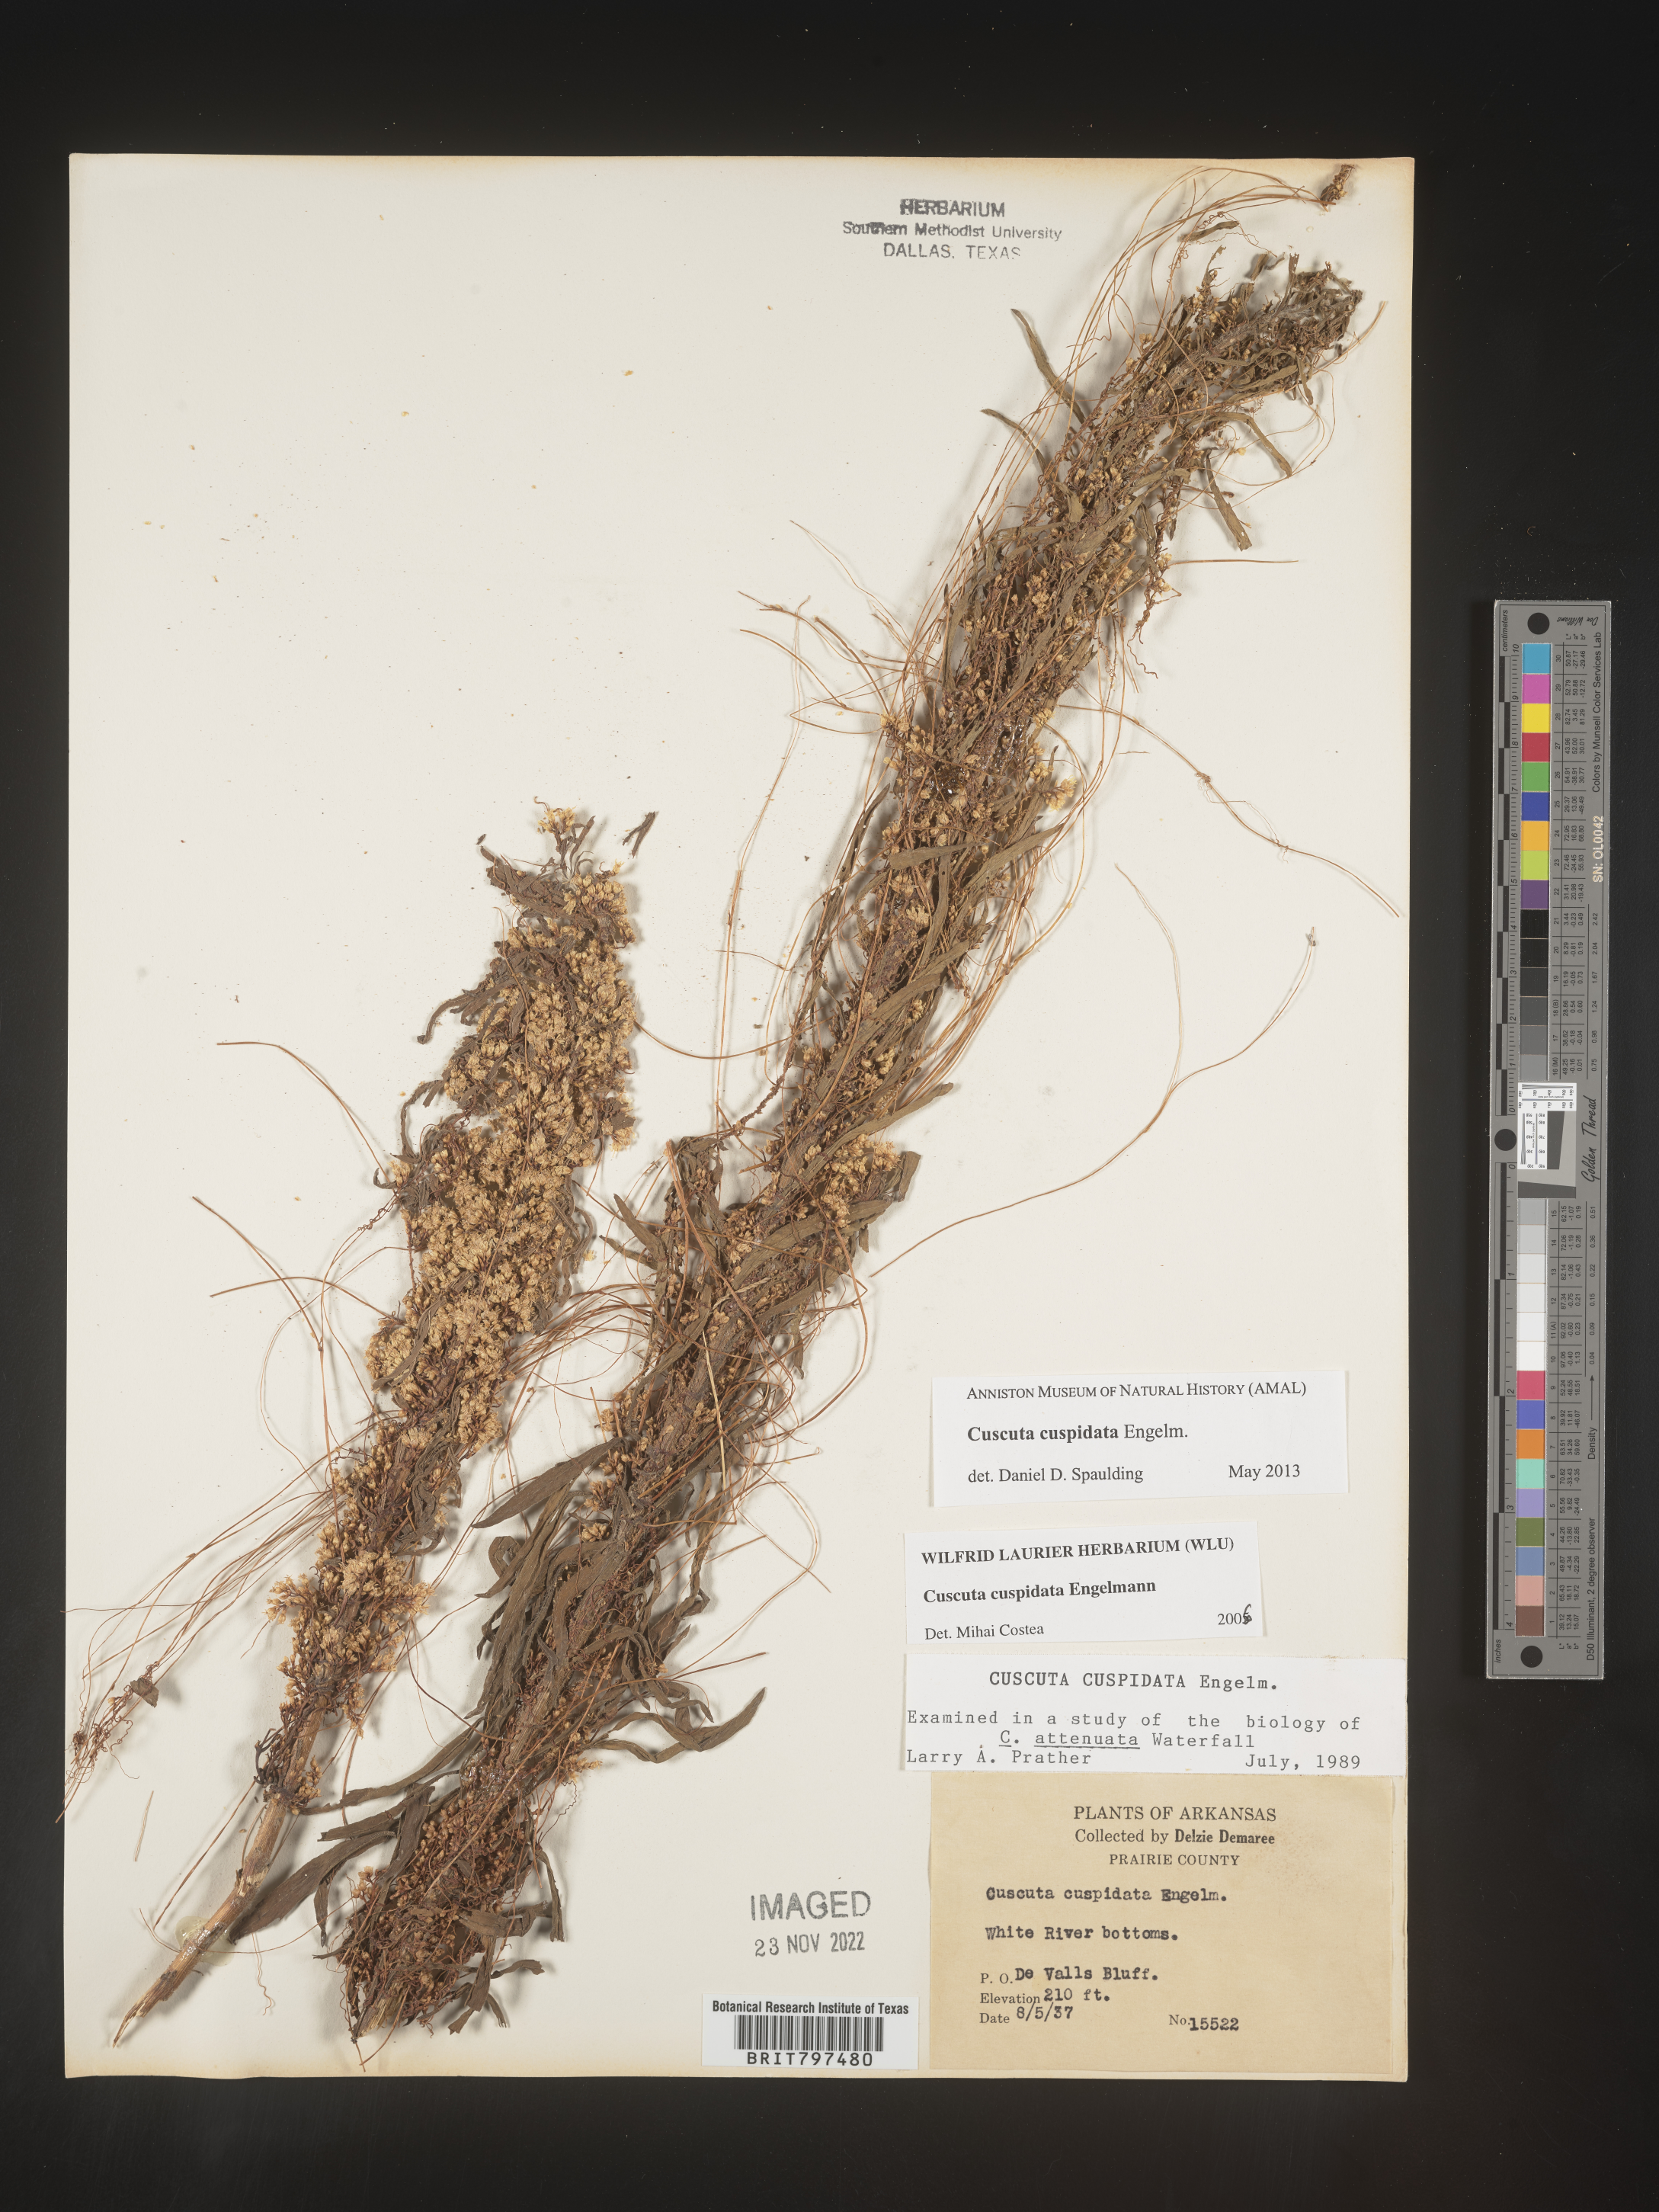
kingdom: Plantae
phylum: Tracheophyta
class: Magnoliopsida
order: Solanales
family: Convolvulaceae
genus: Cuscuta
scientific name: Cuscuta cuspidata
